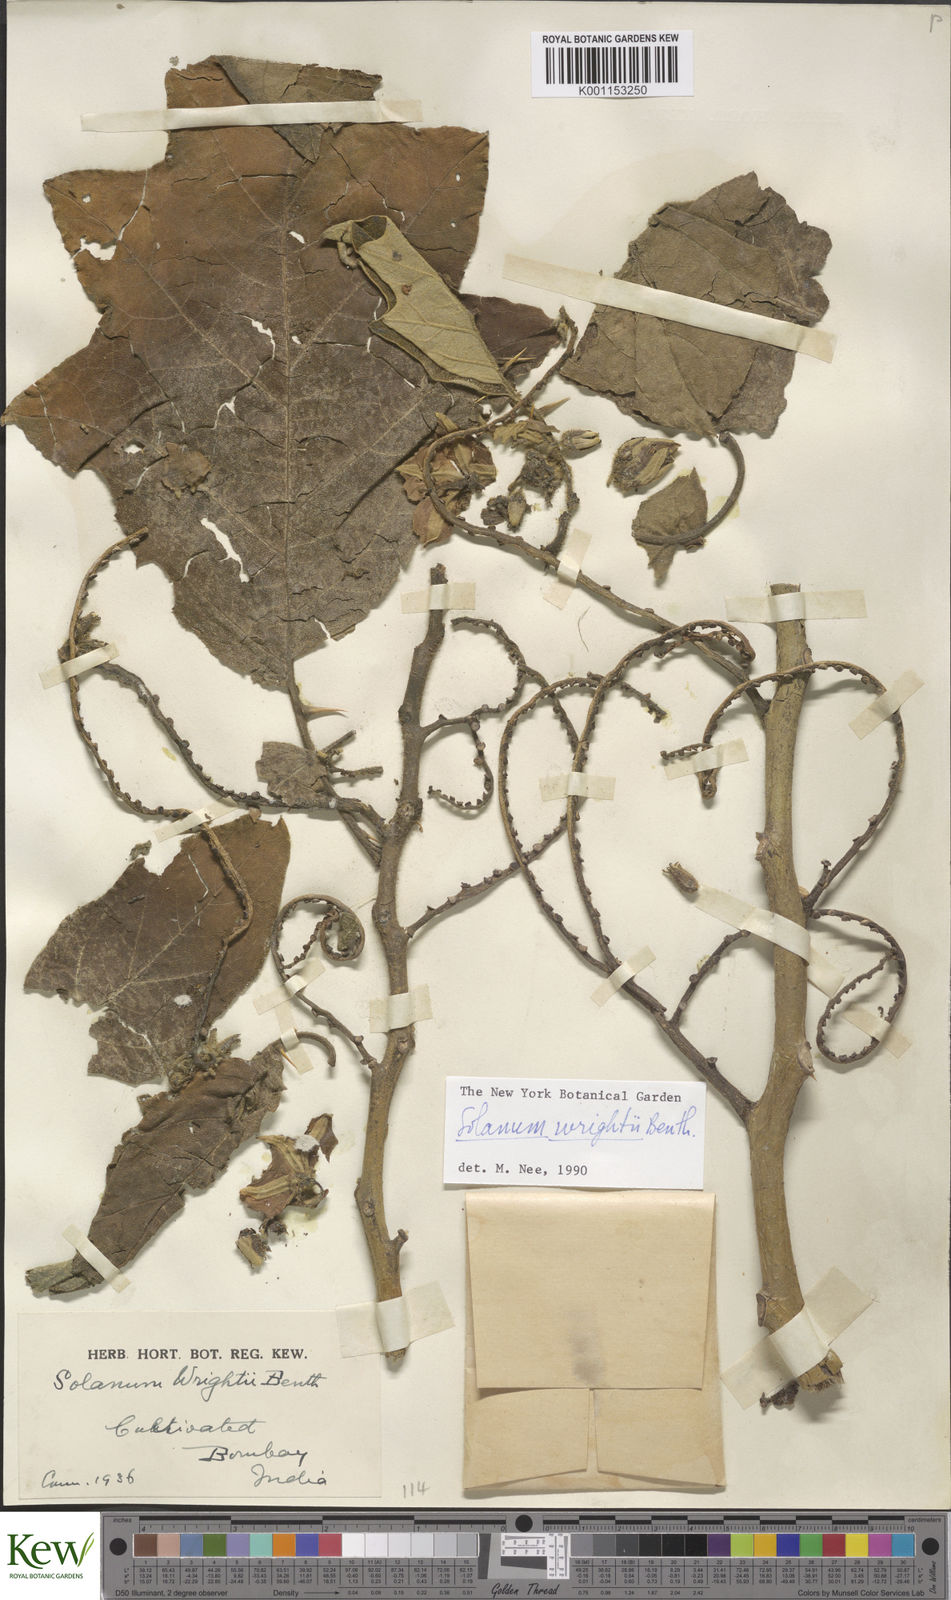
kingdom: Plantae
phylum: Tracheophyta
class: Magnoliopsida
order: Solanales
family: Solanaceae
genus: Solanum
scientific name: Solanum wrightii
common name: Brazilian potato-tree
